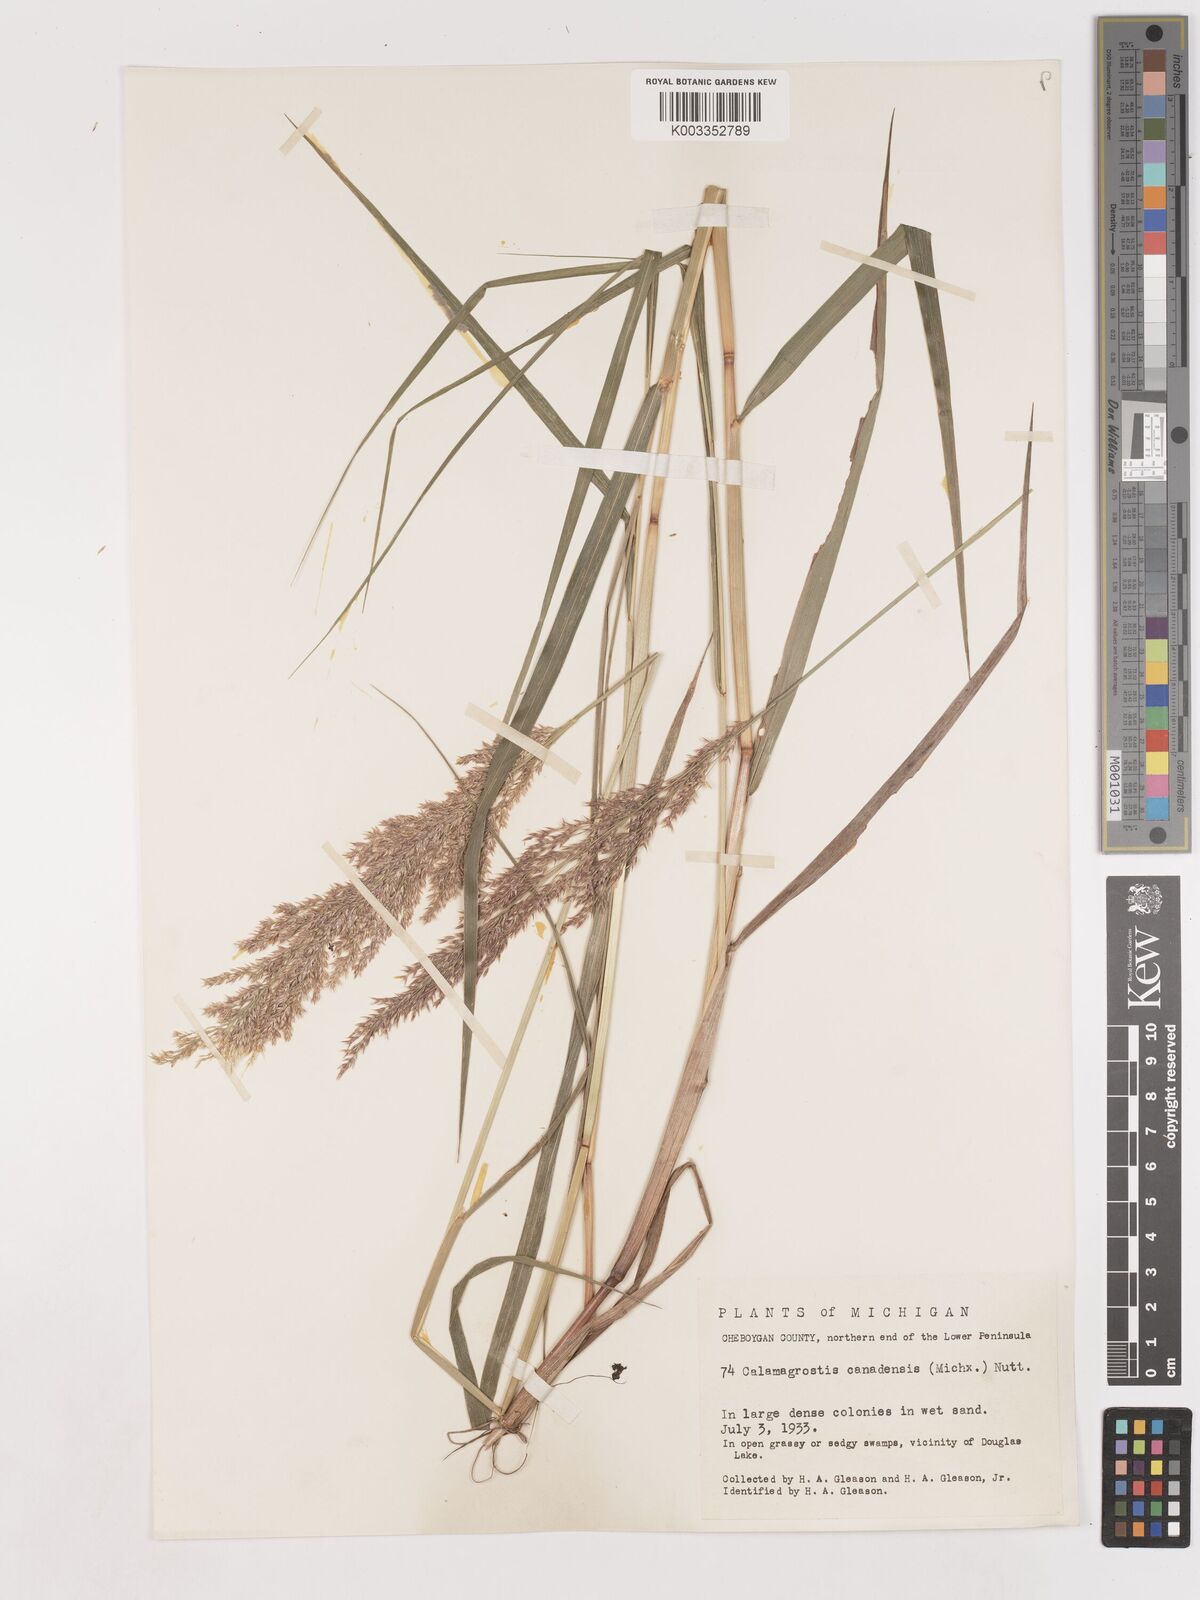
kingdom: Plantae
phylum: Tracheophyta
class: Liliopsida
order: Poales
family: Poaceae
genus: Calamagrostis
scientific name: Calamagrostis canadensis
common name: Canada bluejoint
